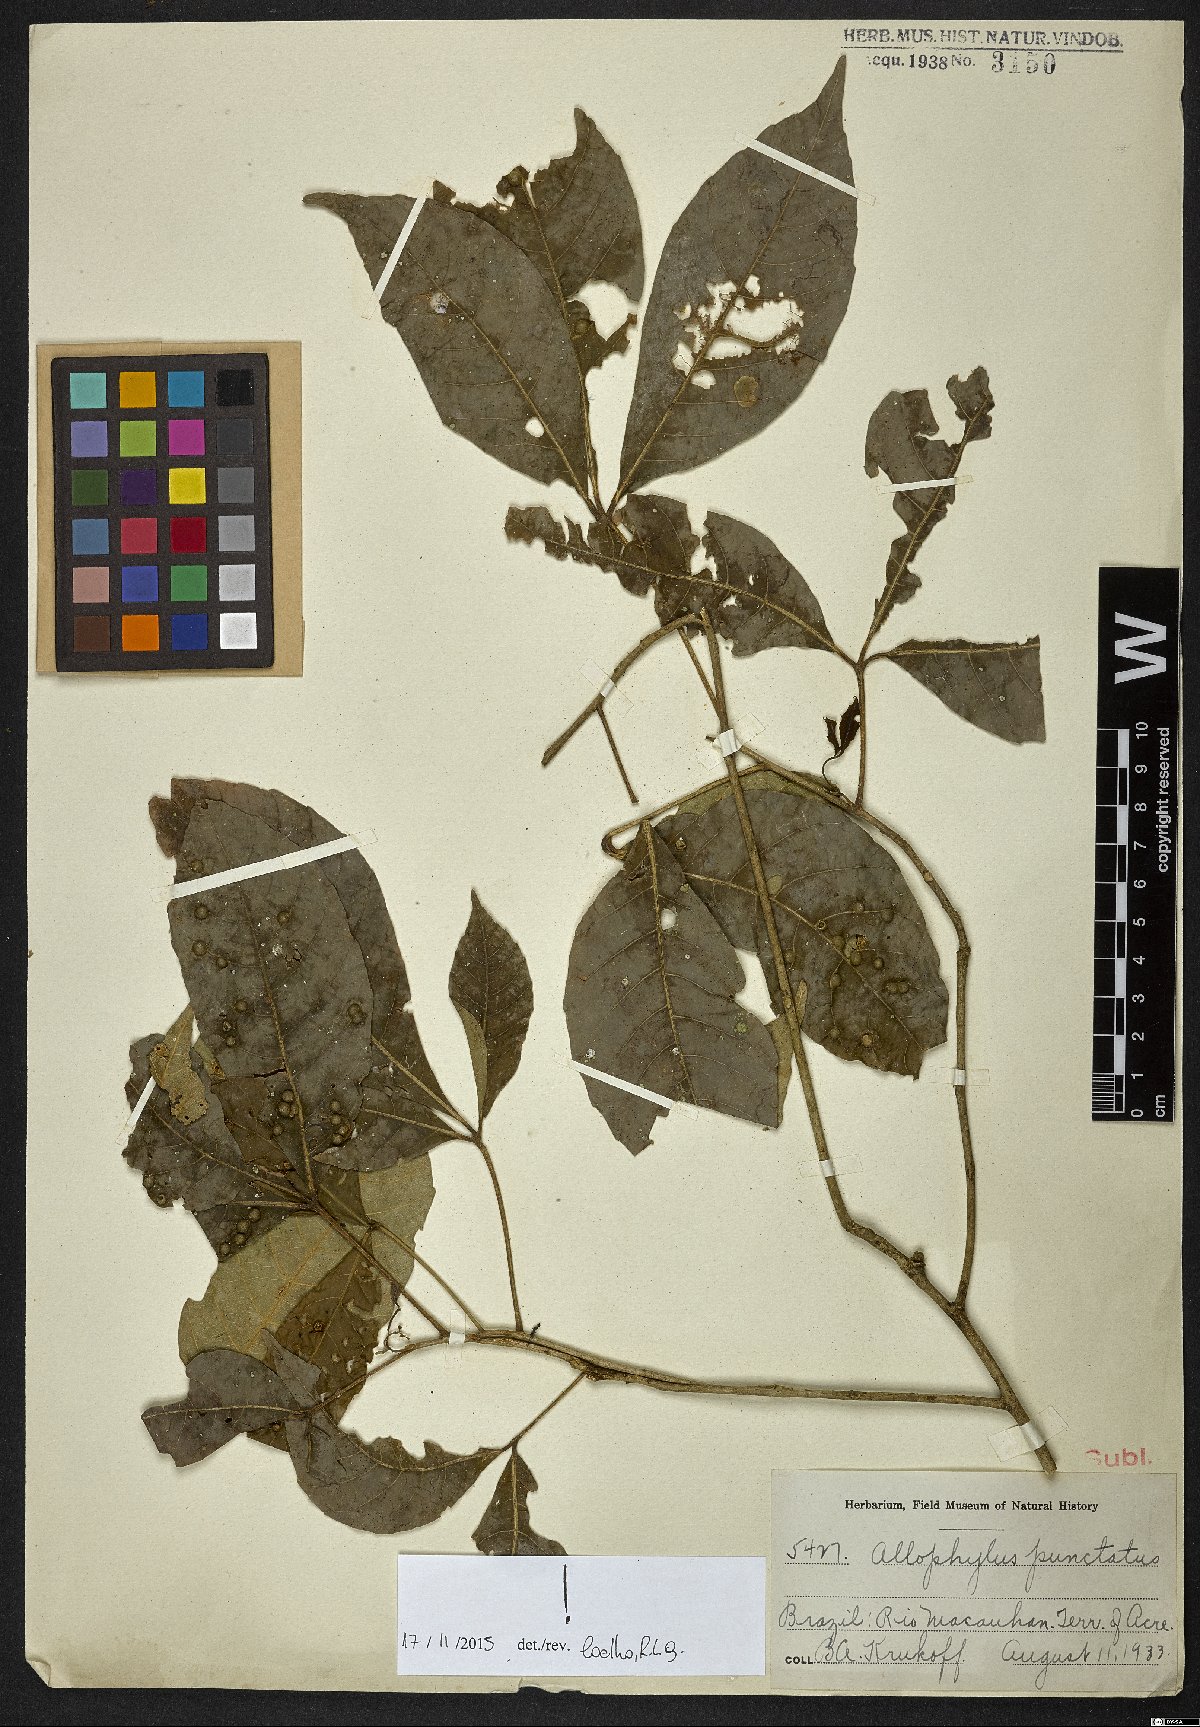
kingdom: Plantae
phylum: Tracheophyta
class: Magnoliopsida
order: Sapindales
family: Sapindaceae
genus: Allophylus
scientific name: Allophylus punctatus
